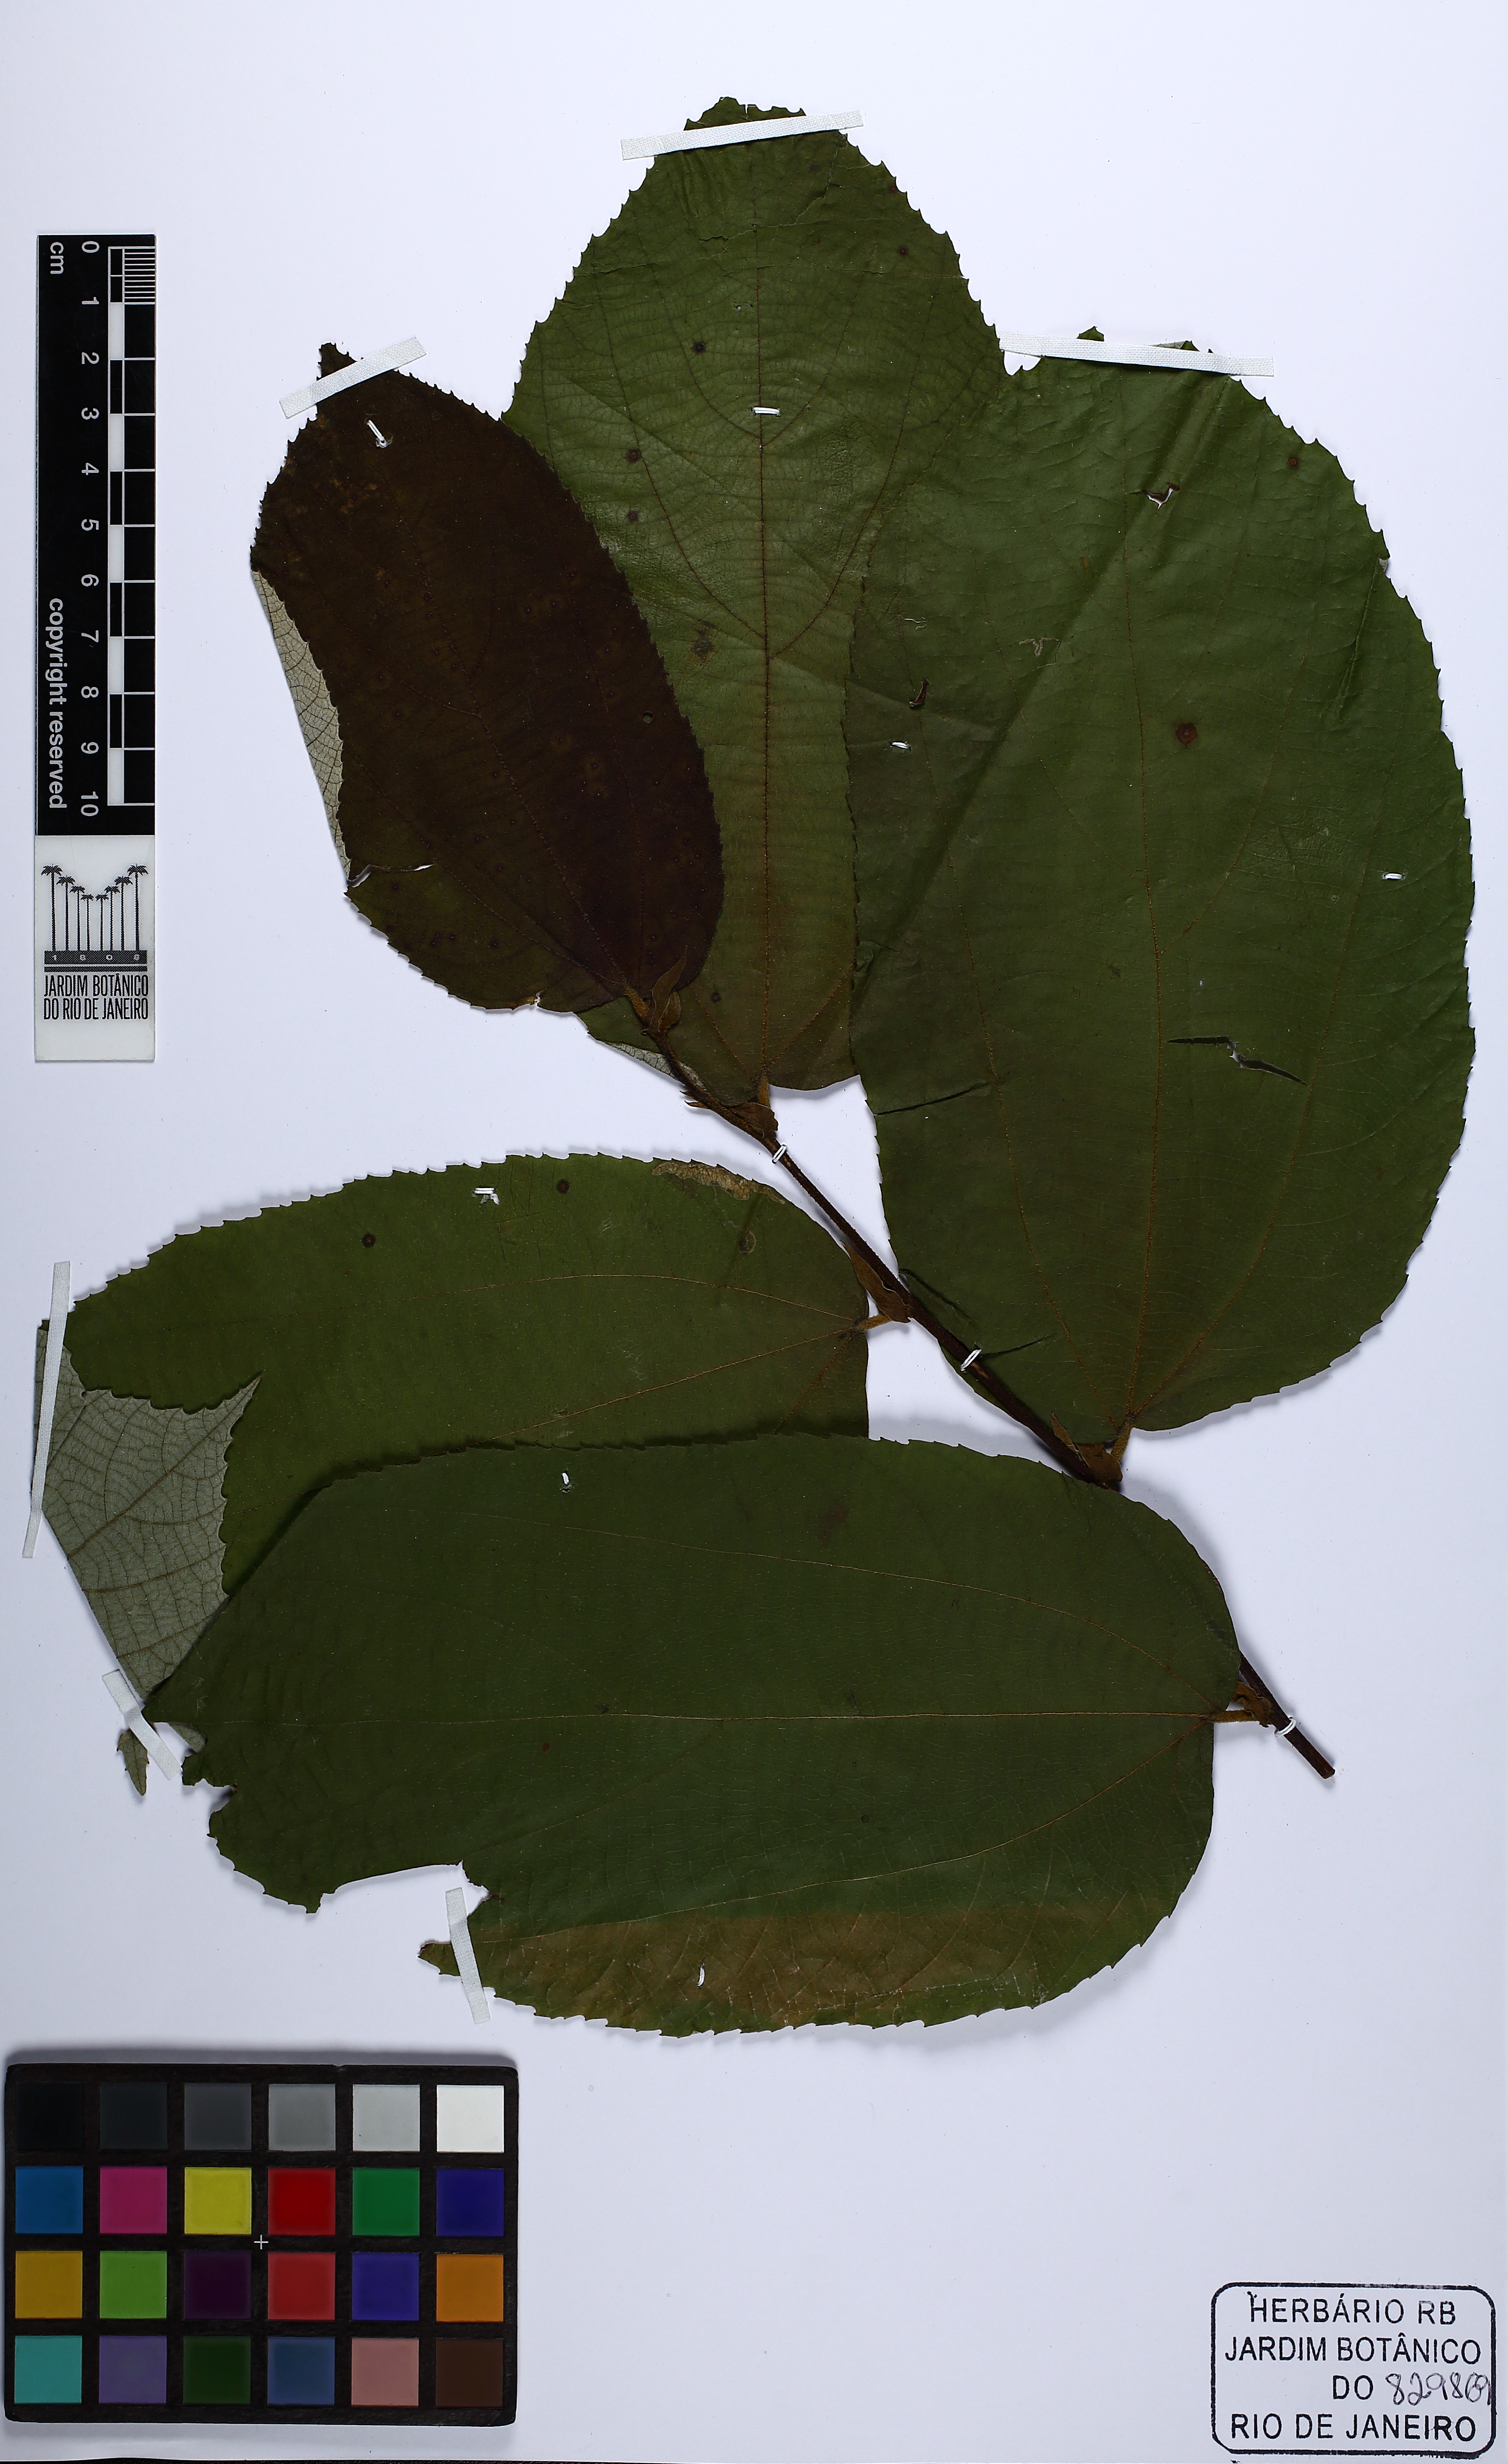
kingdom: Plantae
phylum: Tracheophyta
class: Magnoliopsida
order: Malvales
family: Malvaceae
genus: Luehea
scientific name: Luehea speciosa
